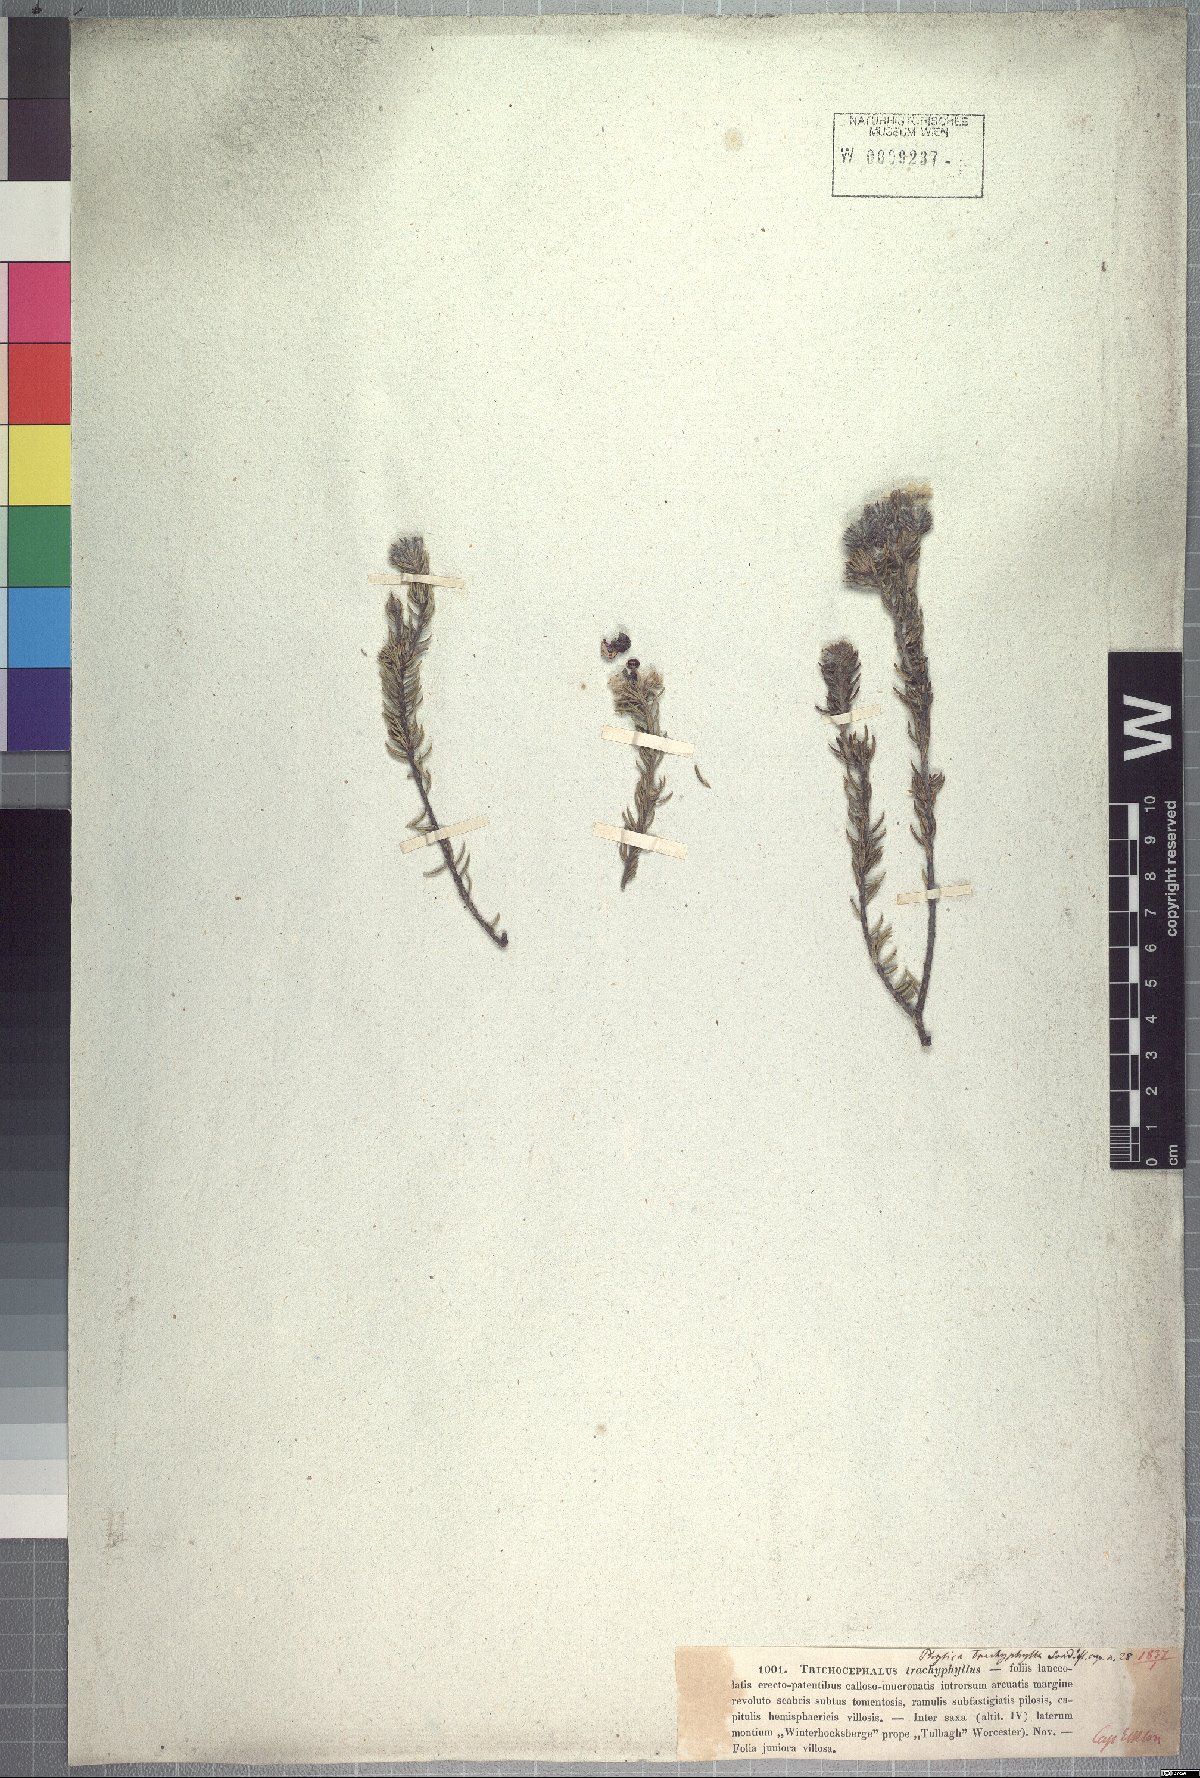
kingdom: Plantae
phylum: Tracheophyta
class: Magnoliopsida
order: Rosales
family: Rhamnaceae
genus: Phylica
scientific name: Phylica trachyphylla
